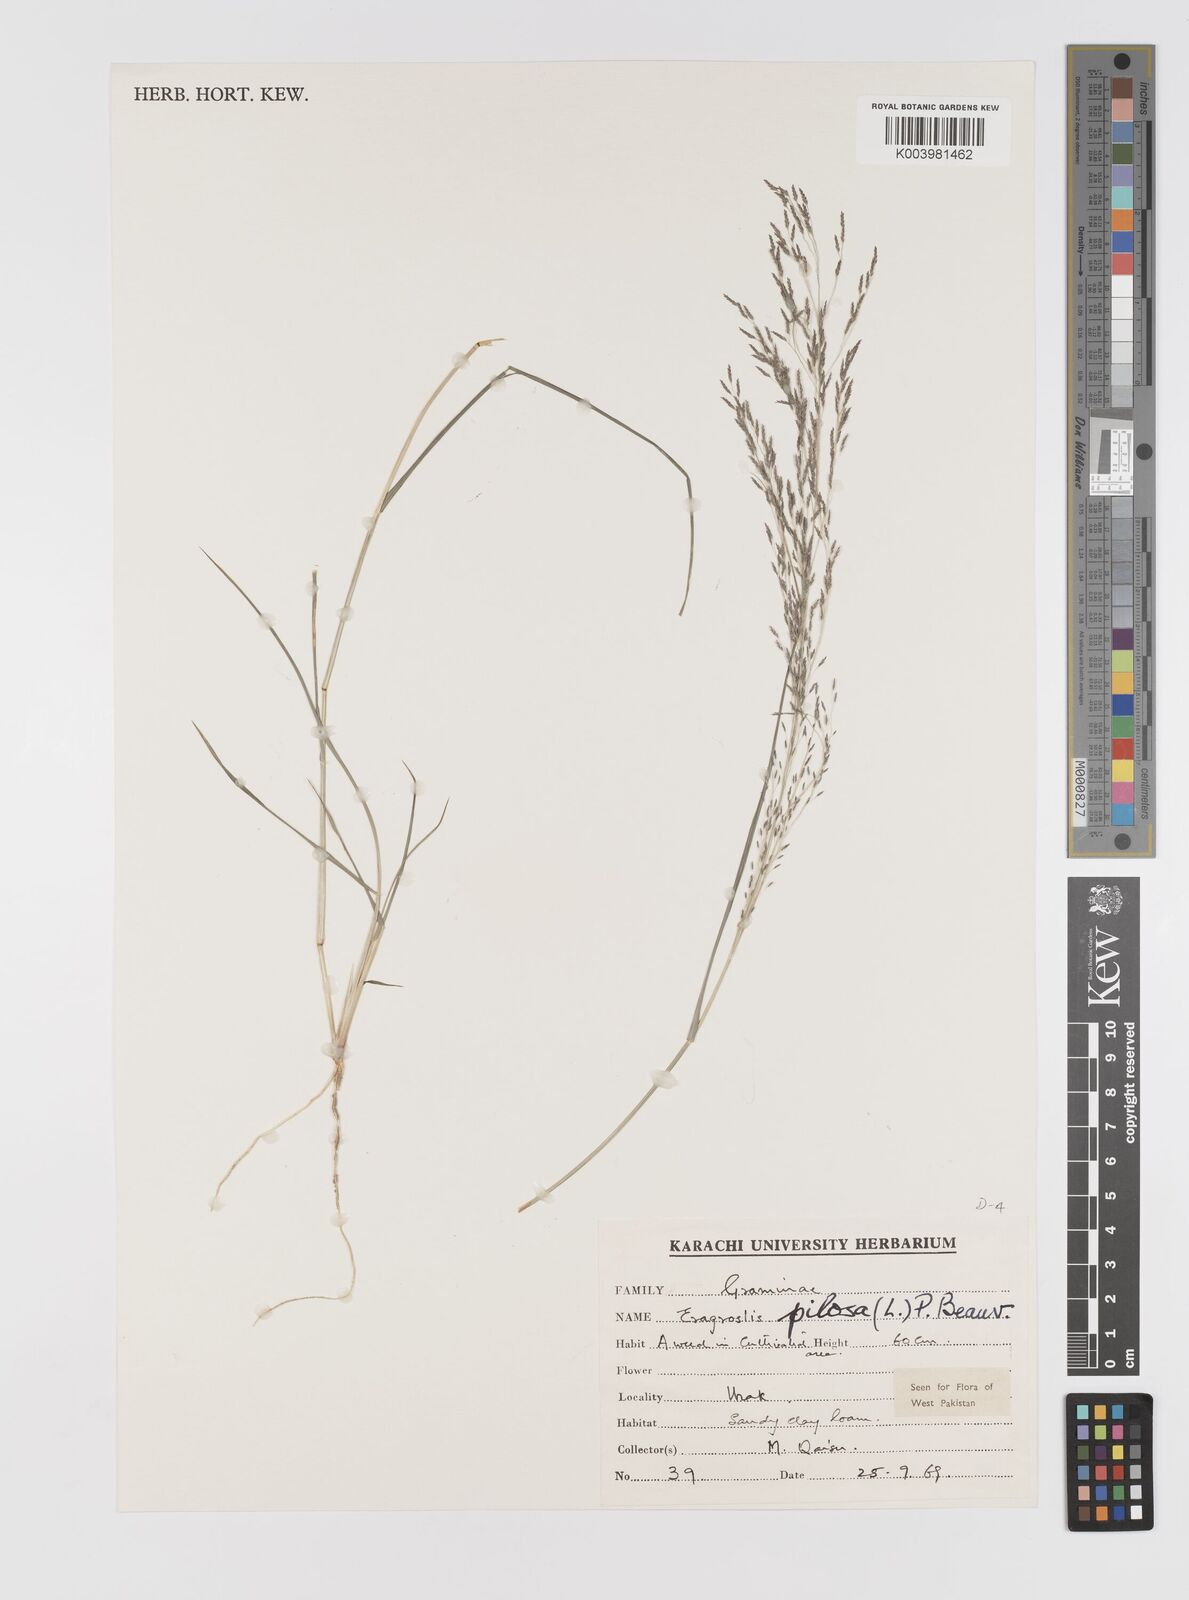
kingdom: Plantae
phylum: Tracheophyta
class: Liliopsida
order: Poales
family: Poaceae
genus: Eragrostis
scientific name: Eragrostis pilosa
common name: Indian lovegrass
